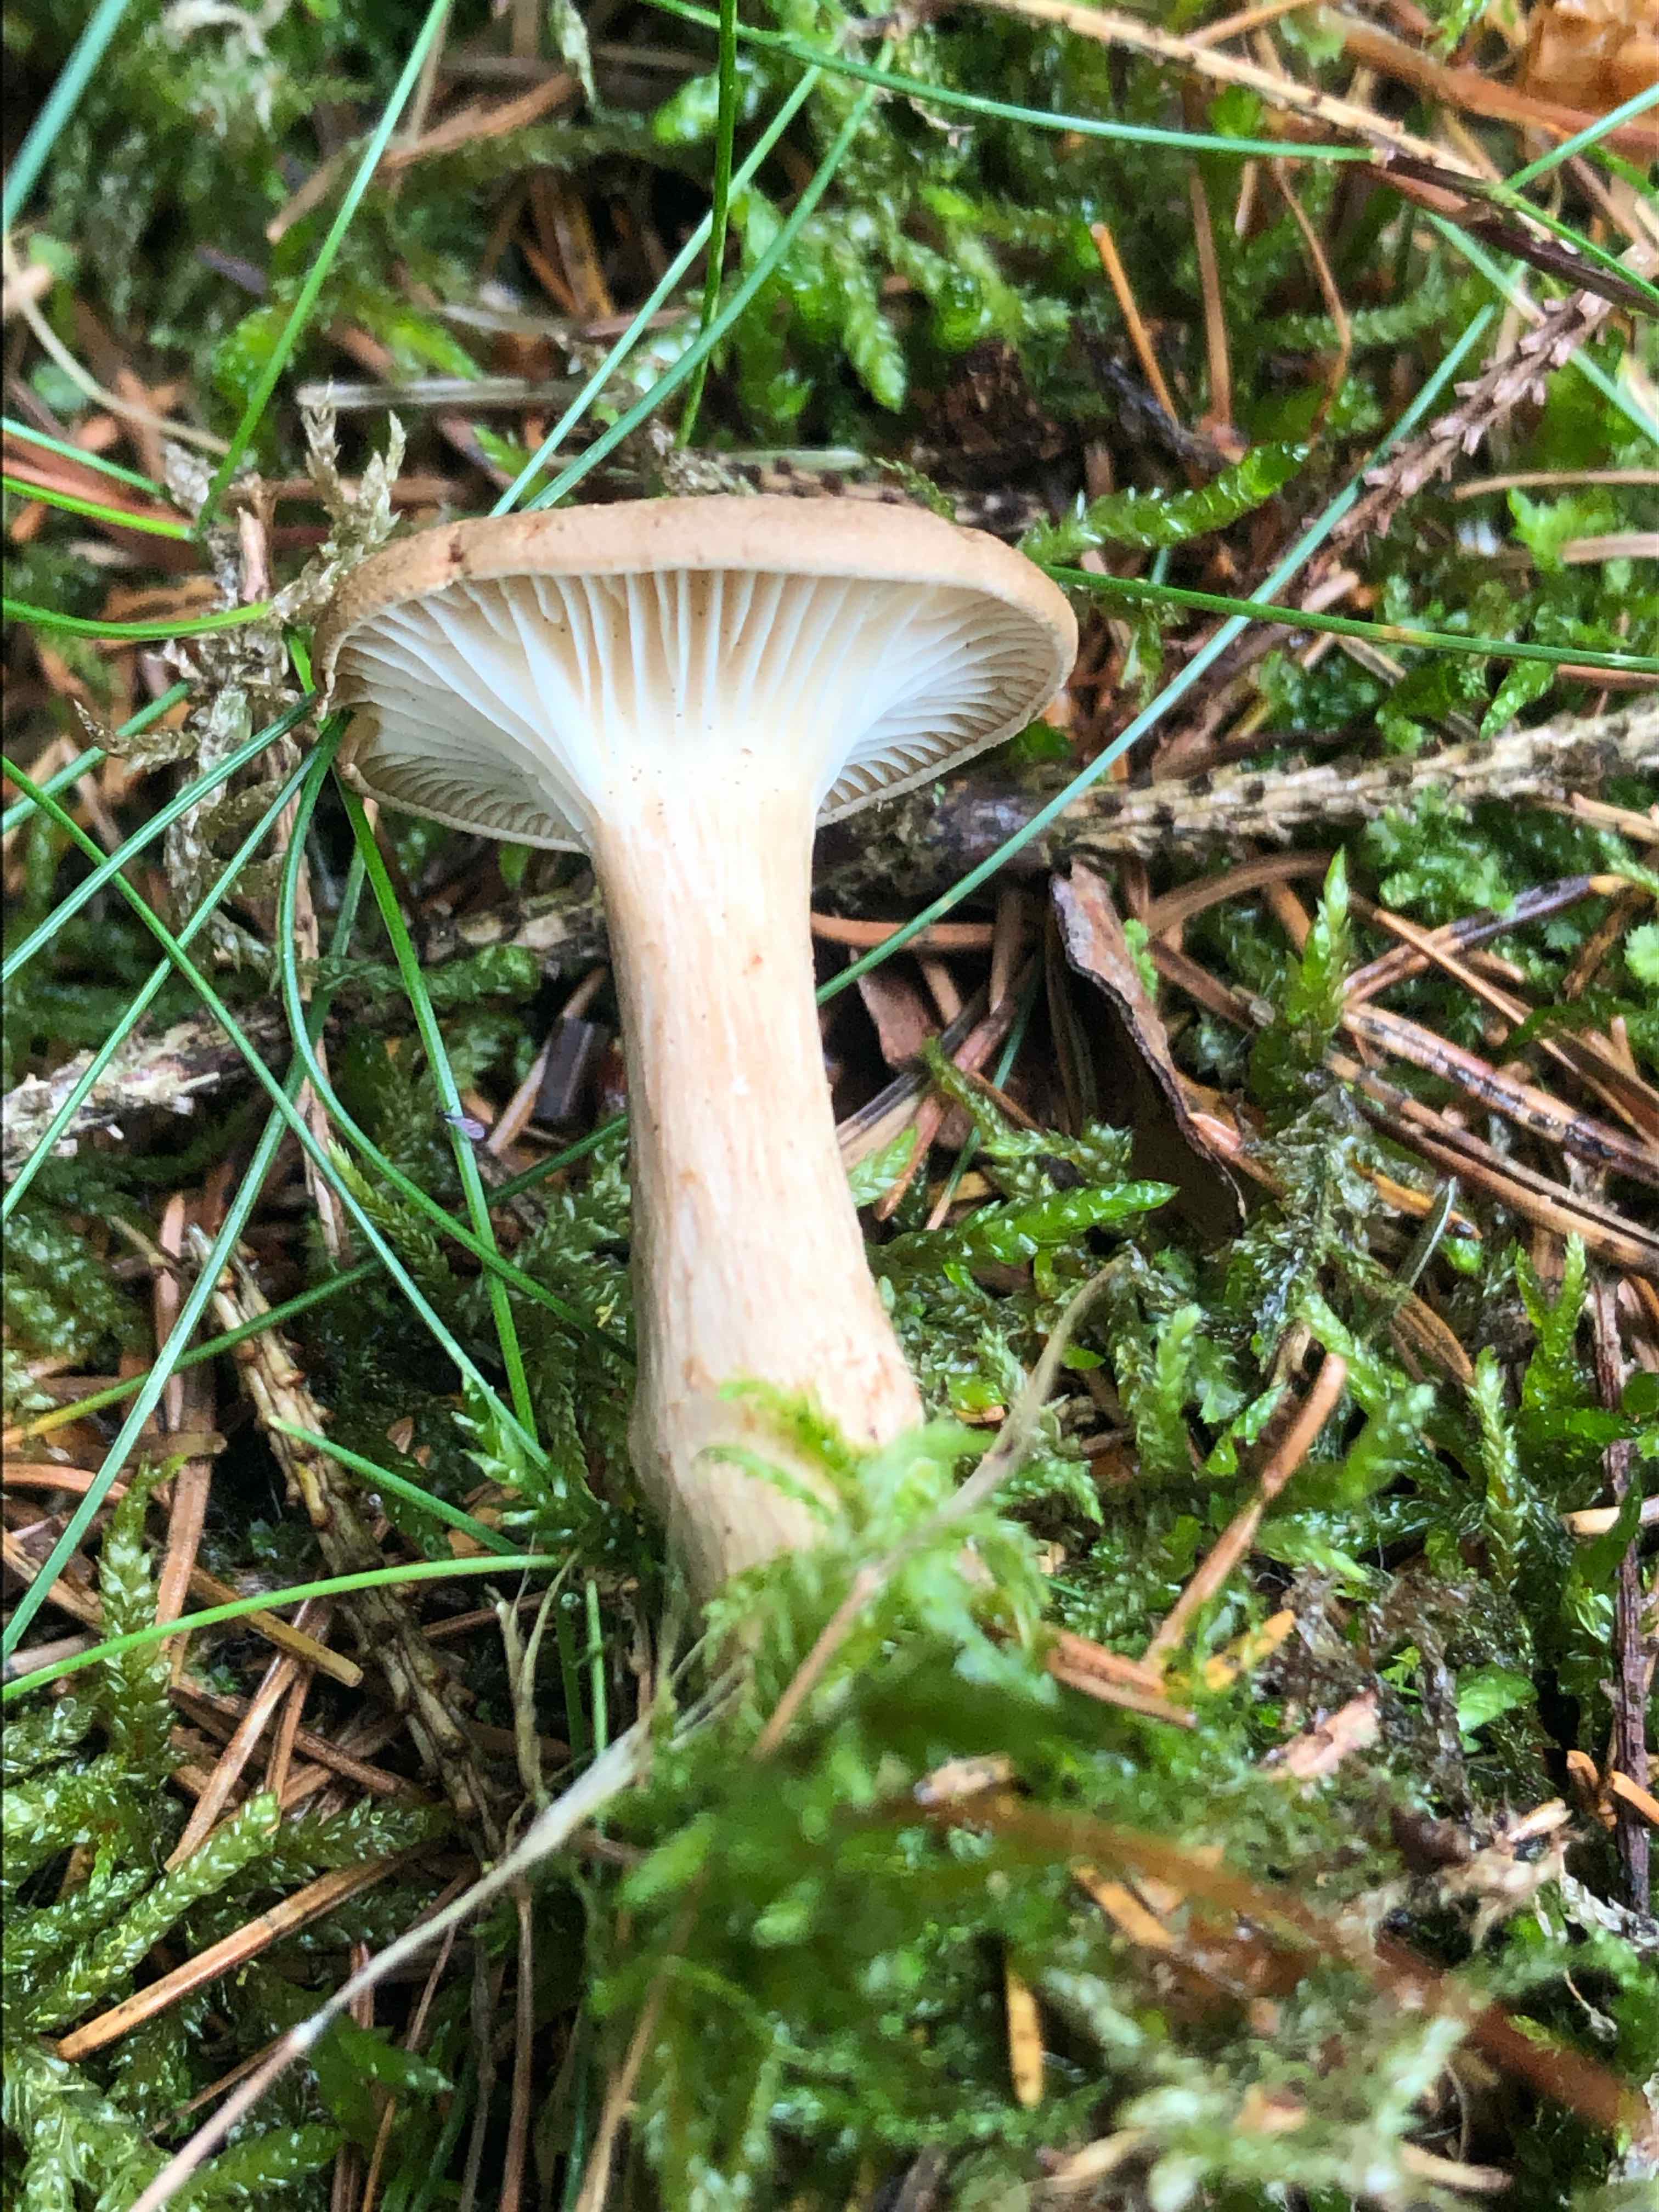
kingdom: Fungi
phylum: Basidiomycota
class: Agaricomycetes
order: Agaricales
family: Tricholomataceae
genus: Infundibulicybe
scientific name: Infundibulicybe squamulosa
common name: småskællet tragthat
